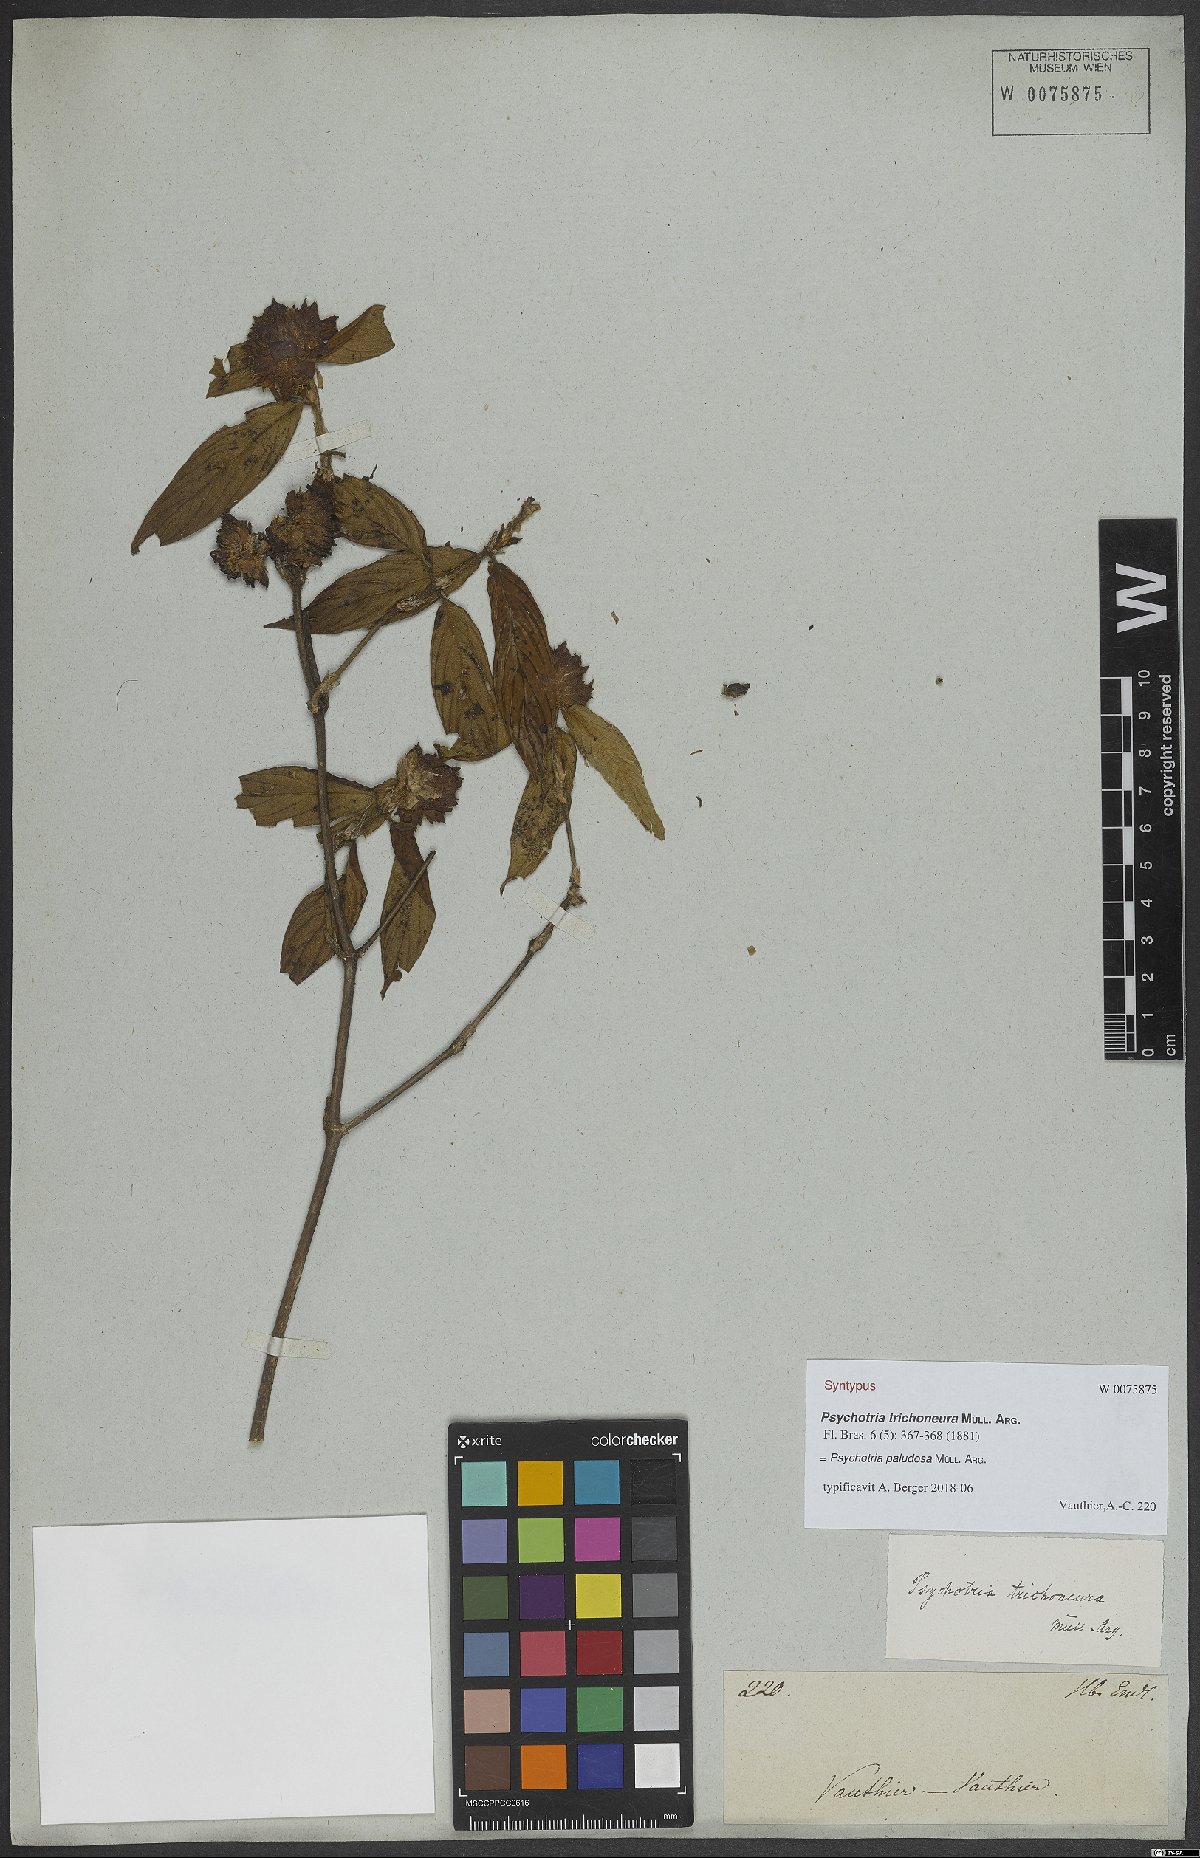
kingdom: Plantae
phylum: Tracheophyta
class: Magnoliopsida
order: Gentianales
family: Rubiaceae
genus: Psychotria
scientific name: Psychotria paludosa
